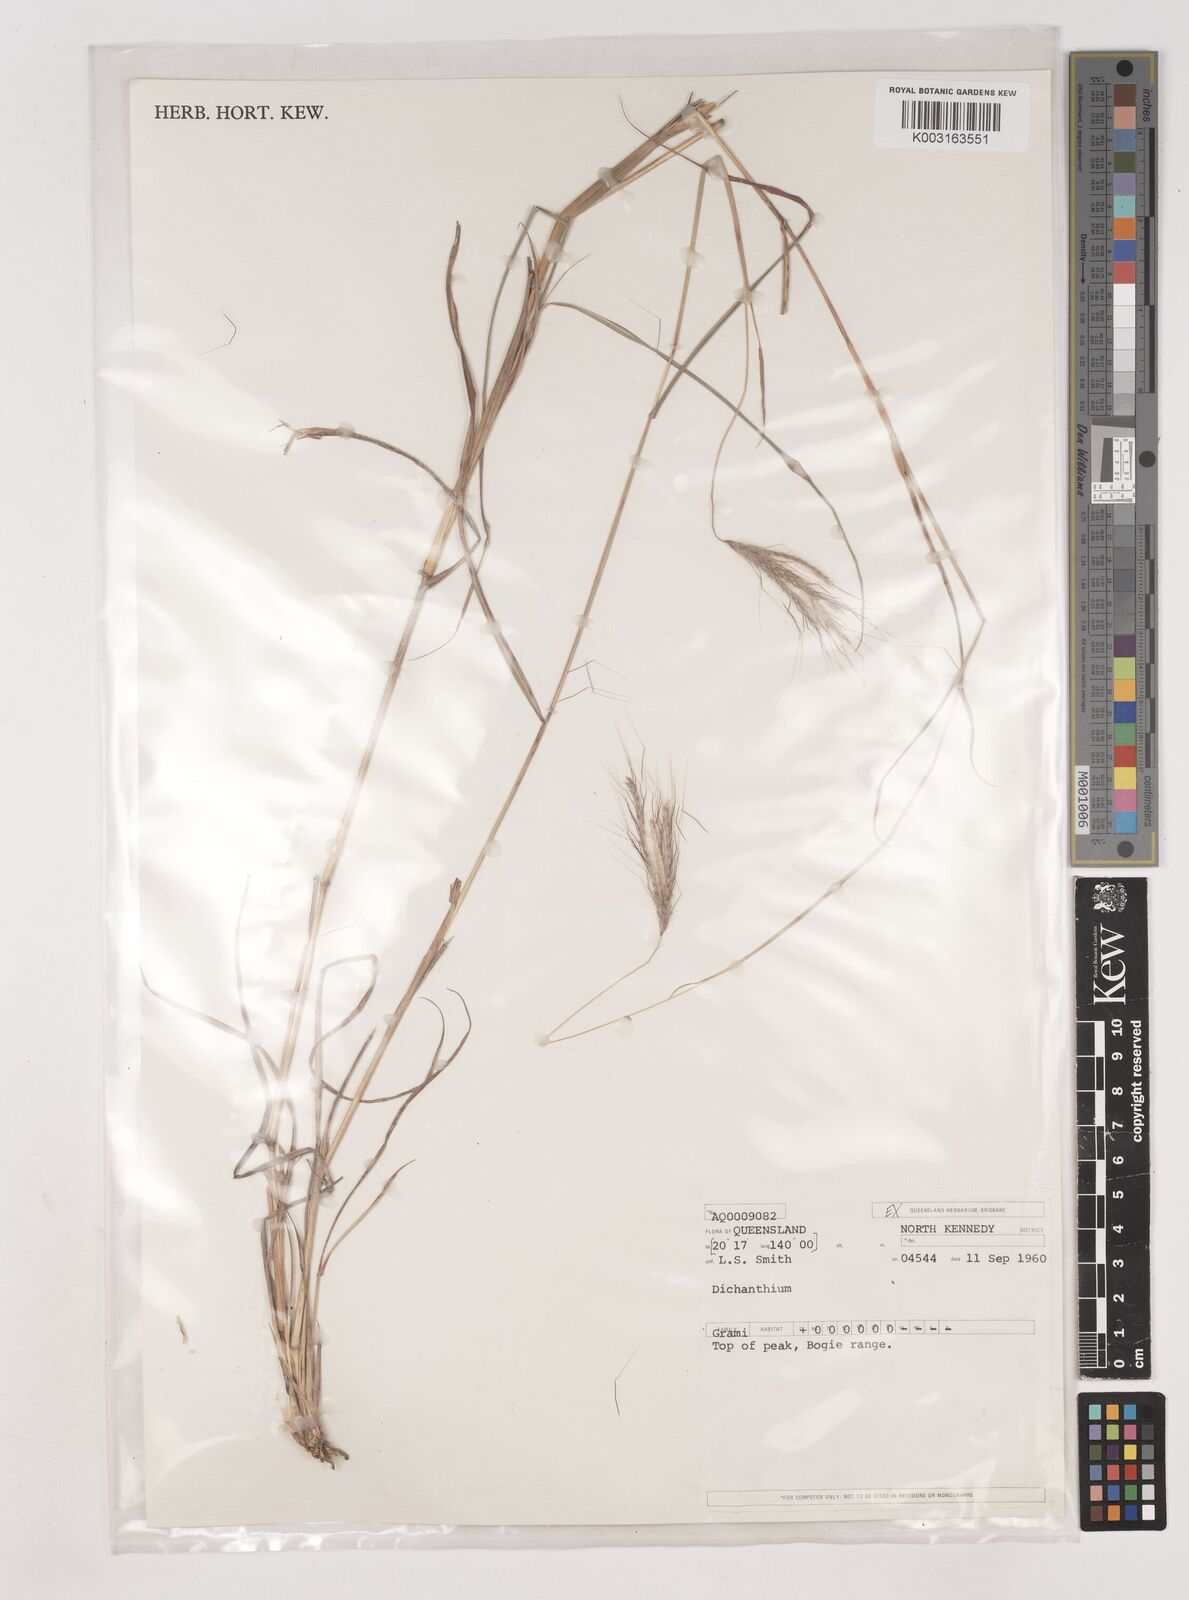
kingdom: Plantae
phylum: Tracheophyta
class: Liliopsida
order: Poales
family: Poaceae
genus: Dichanthium
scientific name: Dichanthium
